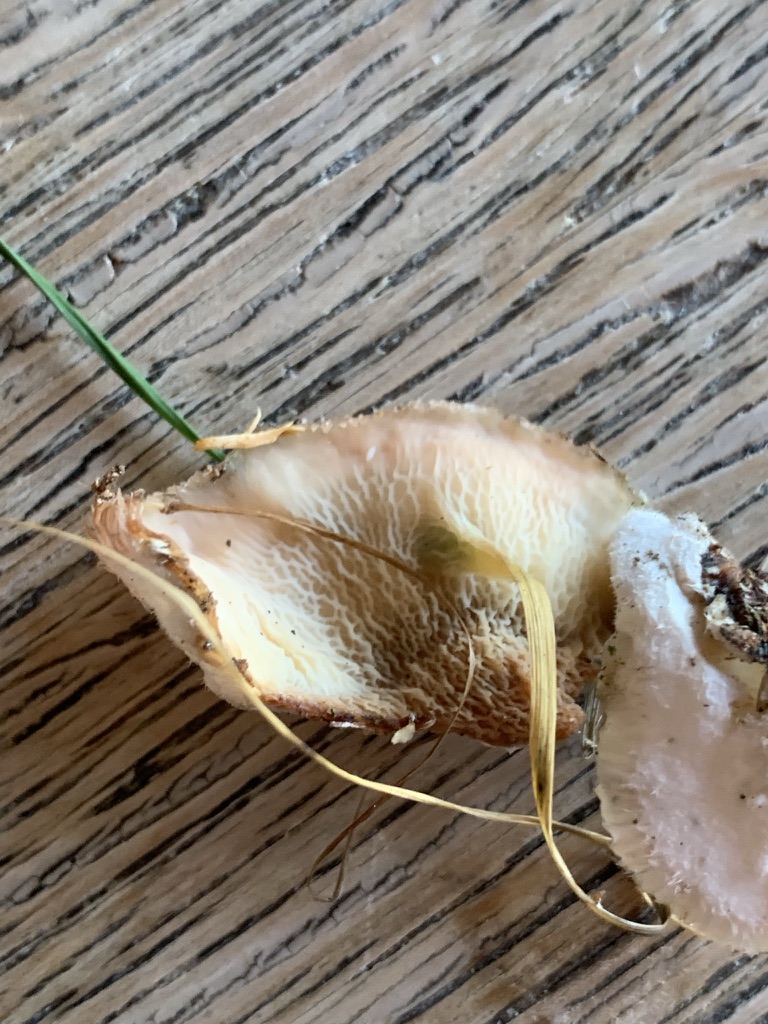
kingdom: Fungi
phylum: Basidiomycota
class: Agaricomycetes
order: Polyporales
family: Meruliaceae
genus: Phlebia
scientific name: Phlebia tremellosa
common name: bævrende åresvamp
